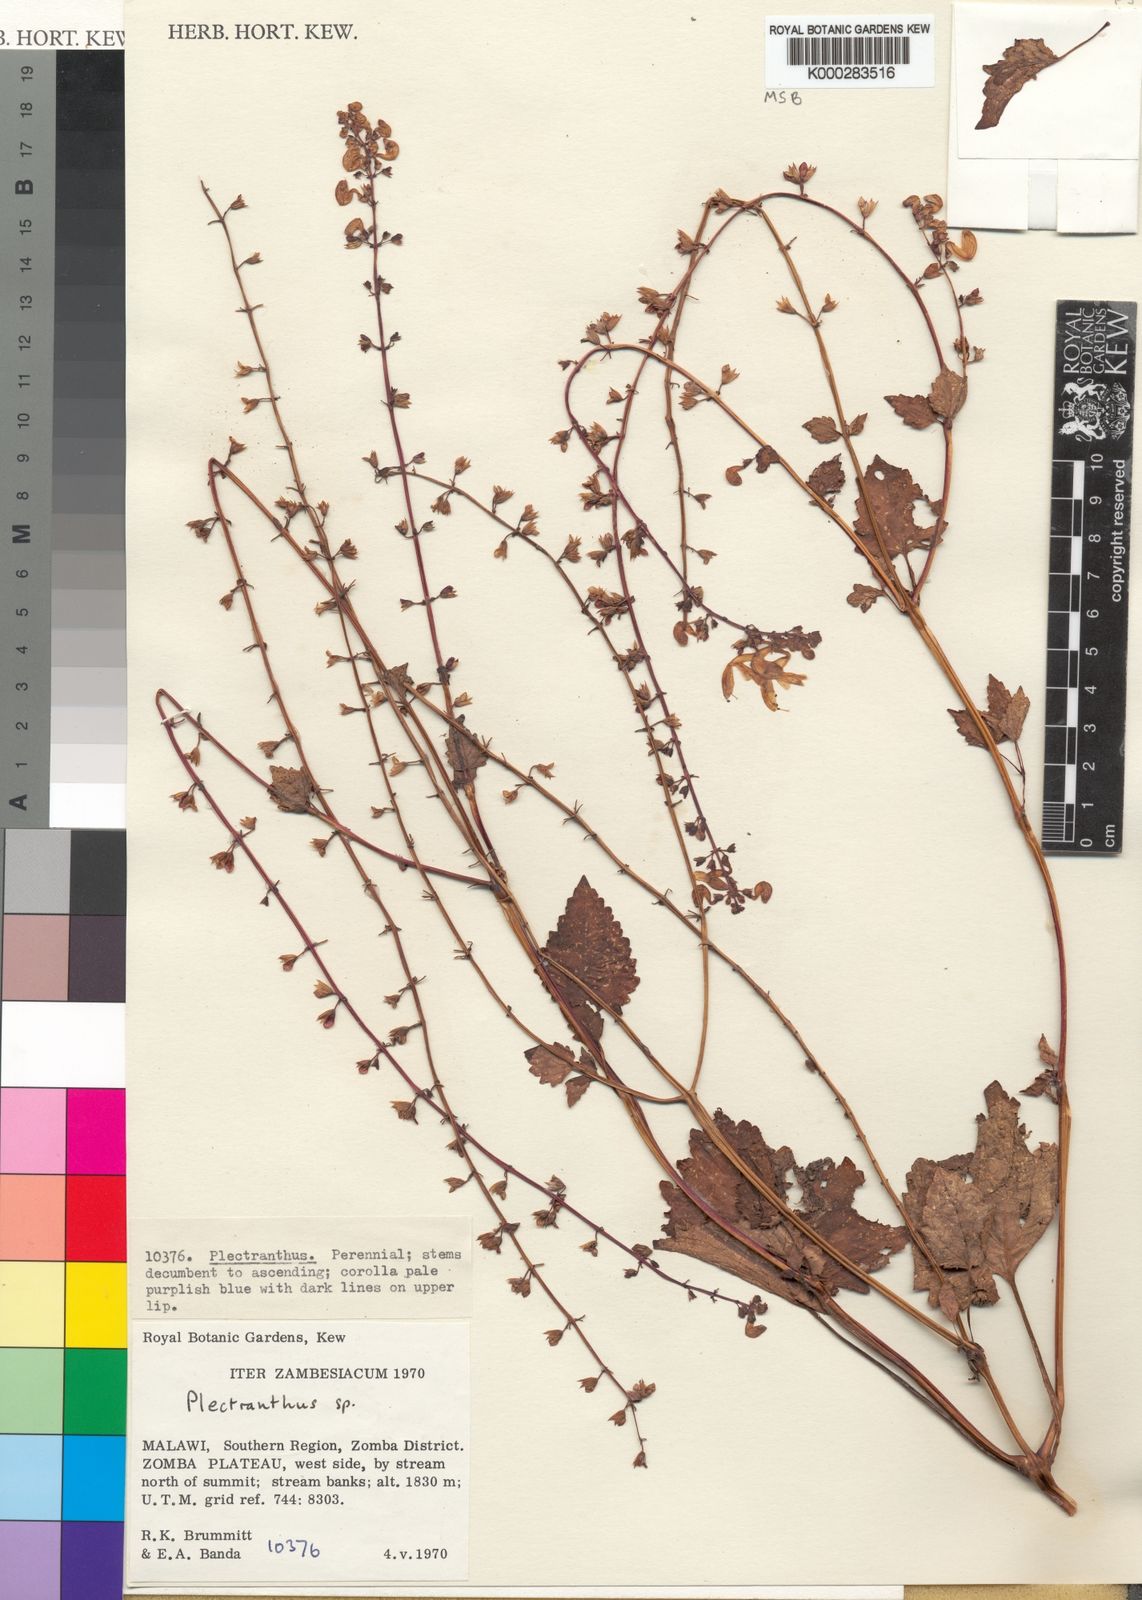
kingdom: Plantae
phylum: Tracheophyta
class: Magnoliopsida
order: Lamiales
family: Lamiaceae
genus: Equilabium
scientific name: Equilabium pinetorum
